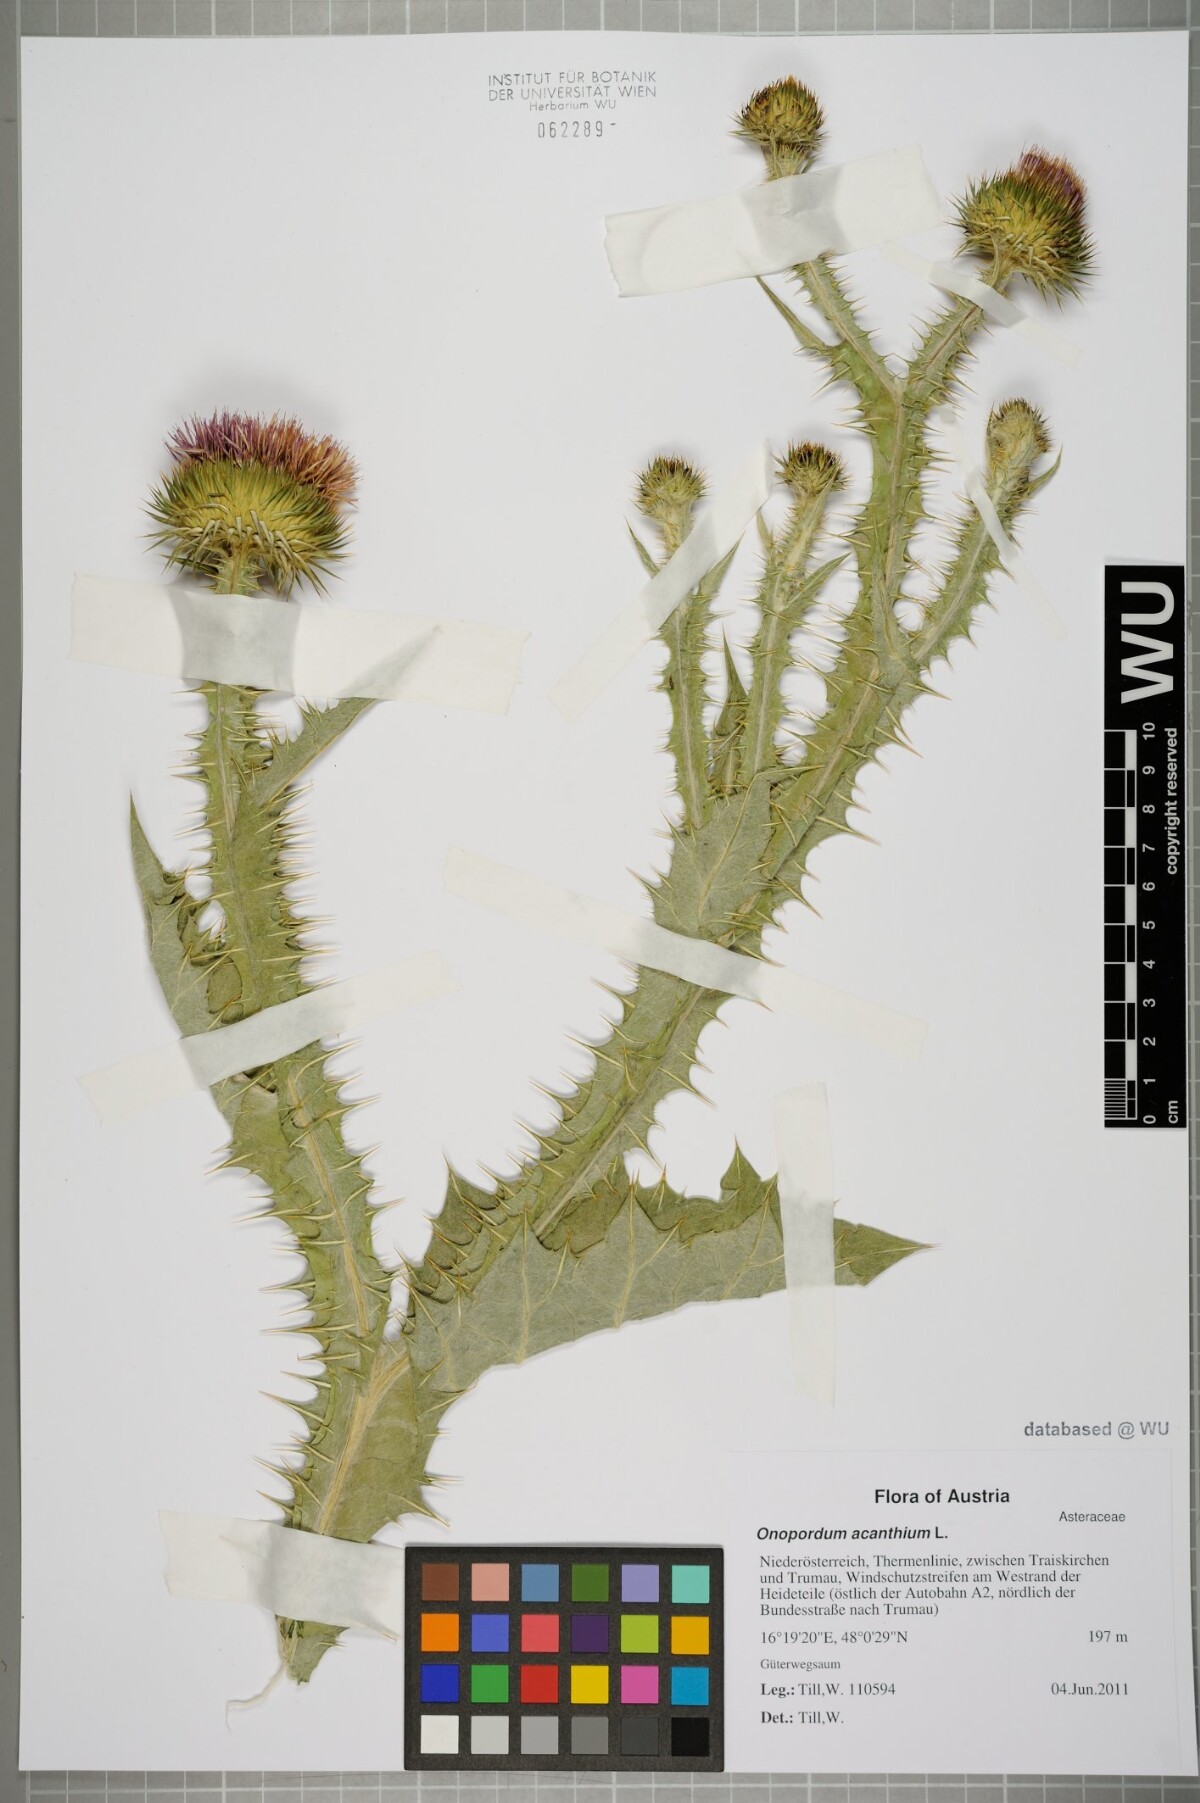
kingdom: Plantae
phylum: Tracheophyta
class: Magnoliopsida
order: Asterales
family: Asteraceae
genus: Onopordum
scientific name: Onopordum acanthium
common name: Scotch thistle
